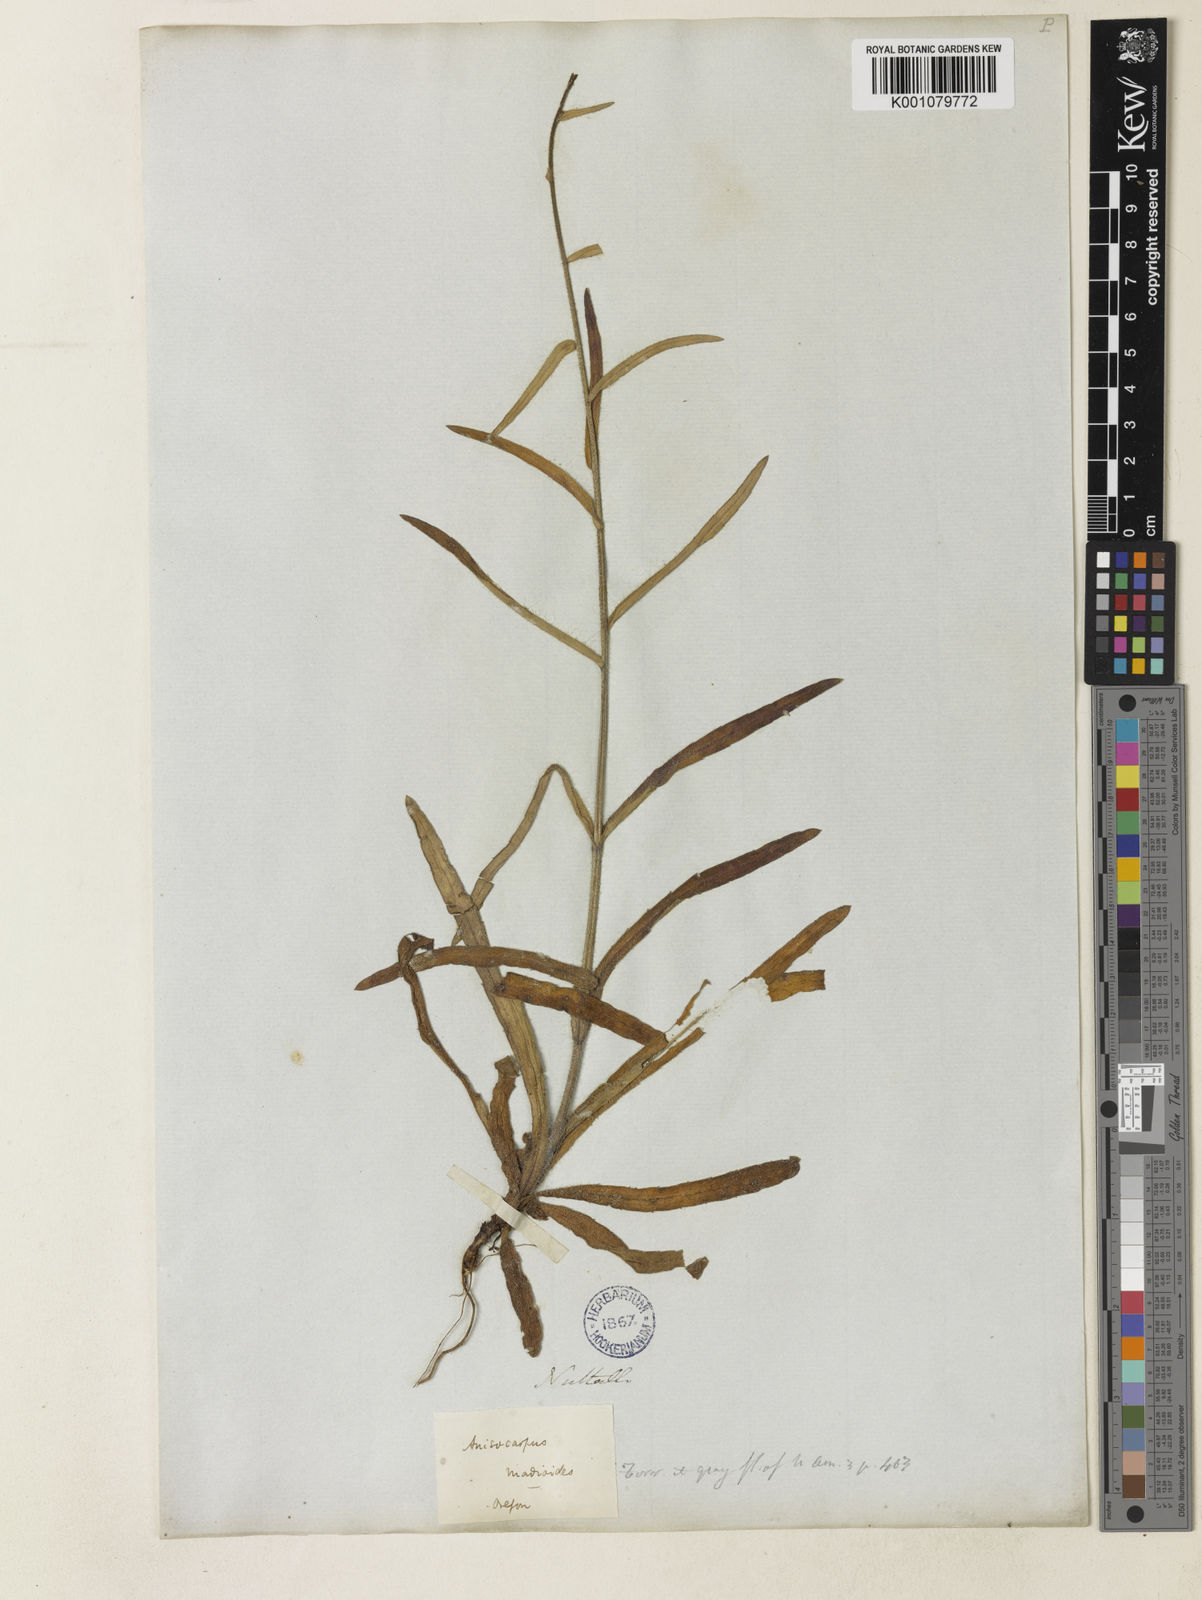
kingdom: Plantae
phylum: Tracheophyta
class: Magnoliopsida
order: Asterales
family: Asteraceae
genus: Anisocarpus
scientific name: Anisocarpus madioides
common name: Woodland madia
